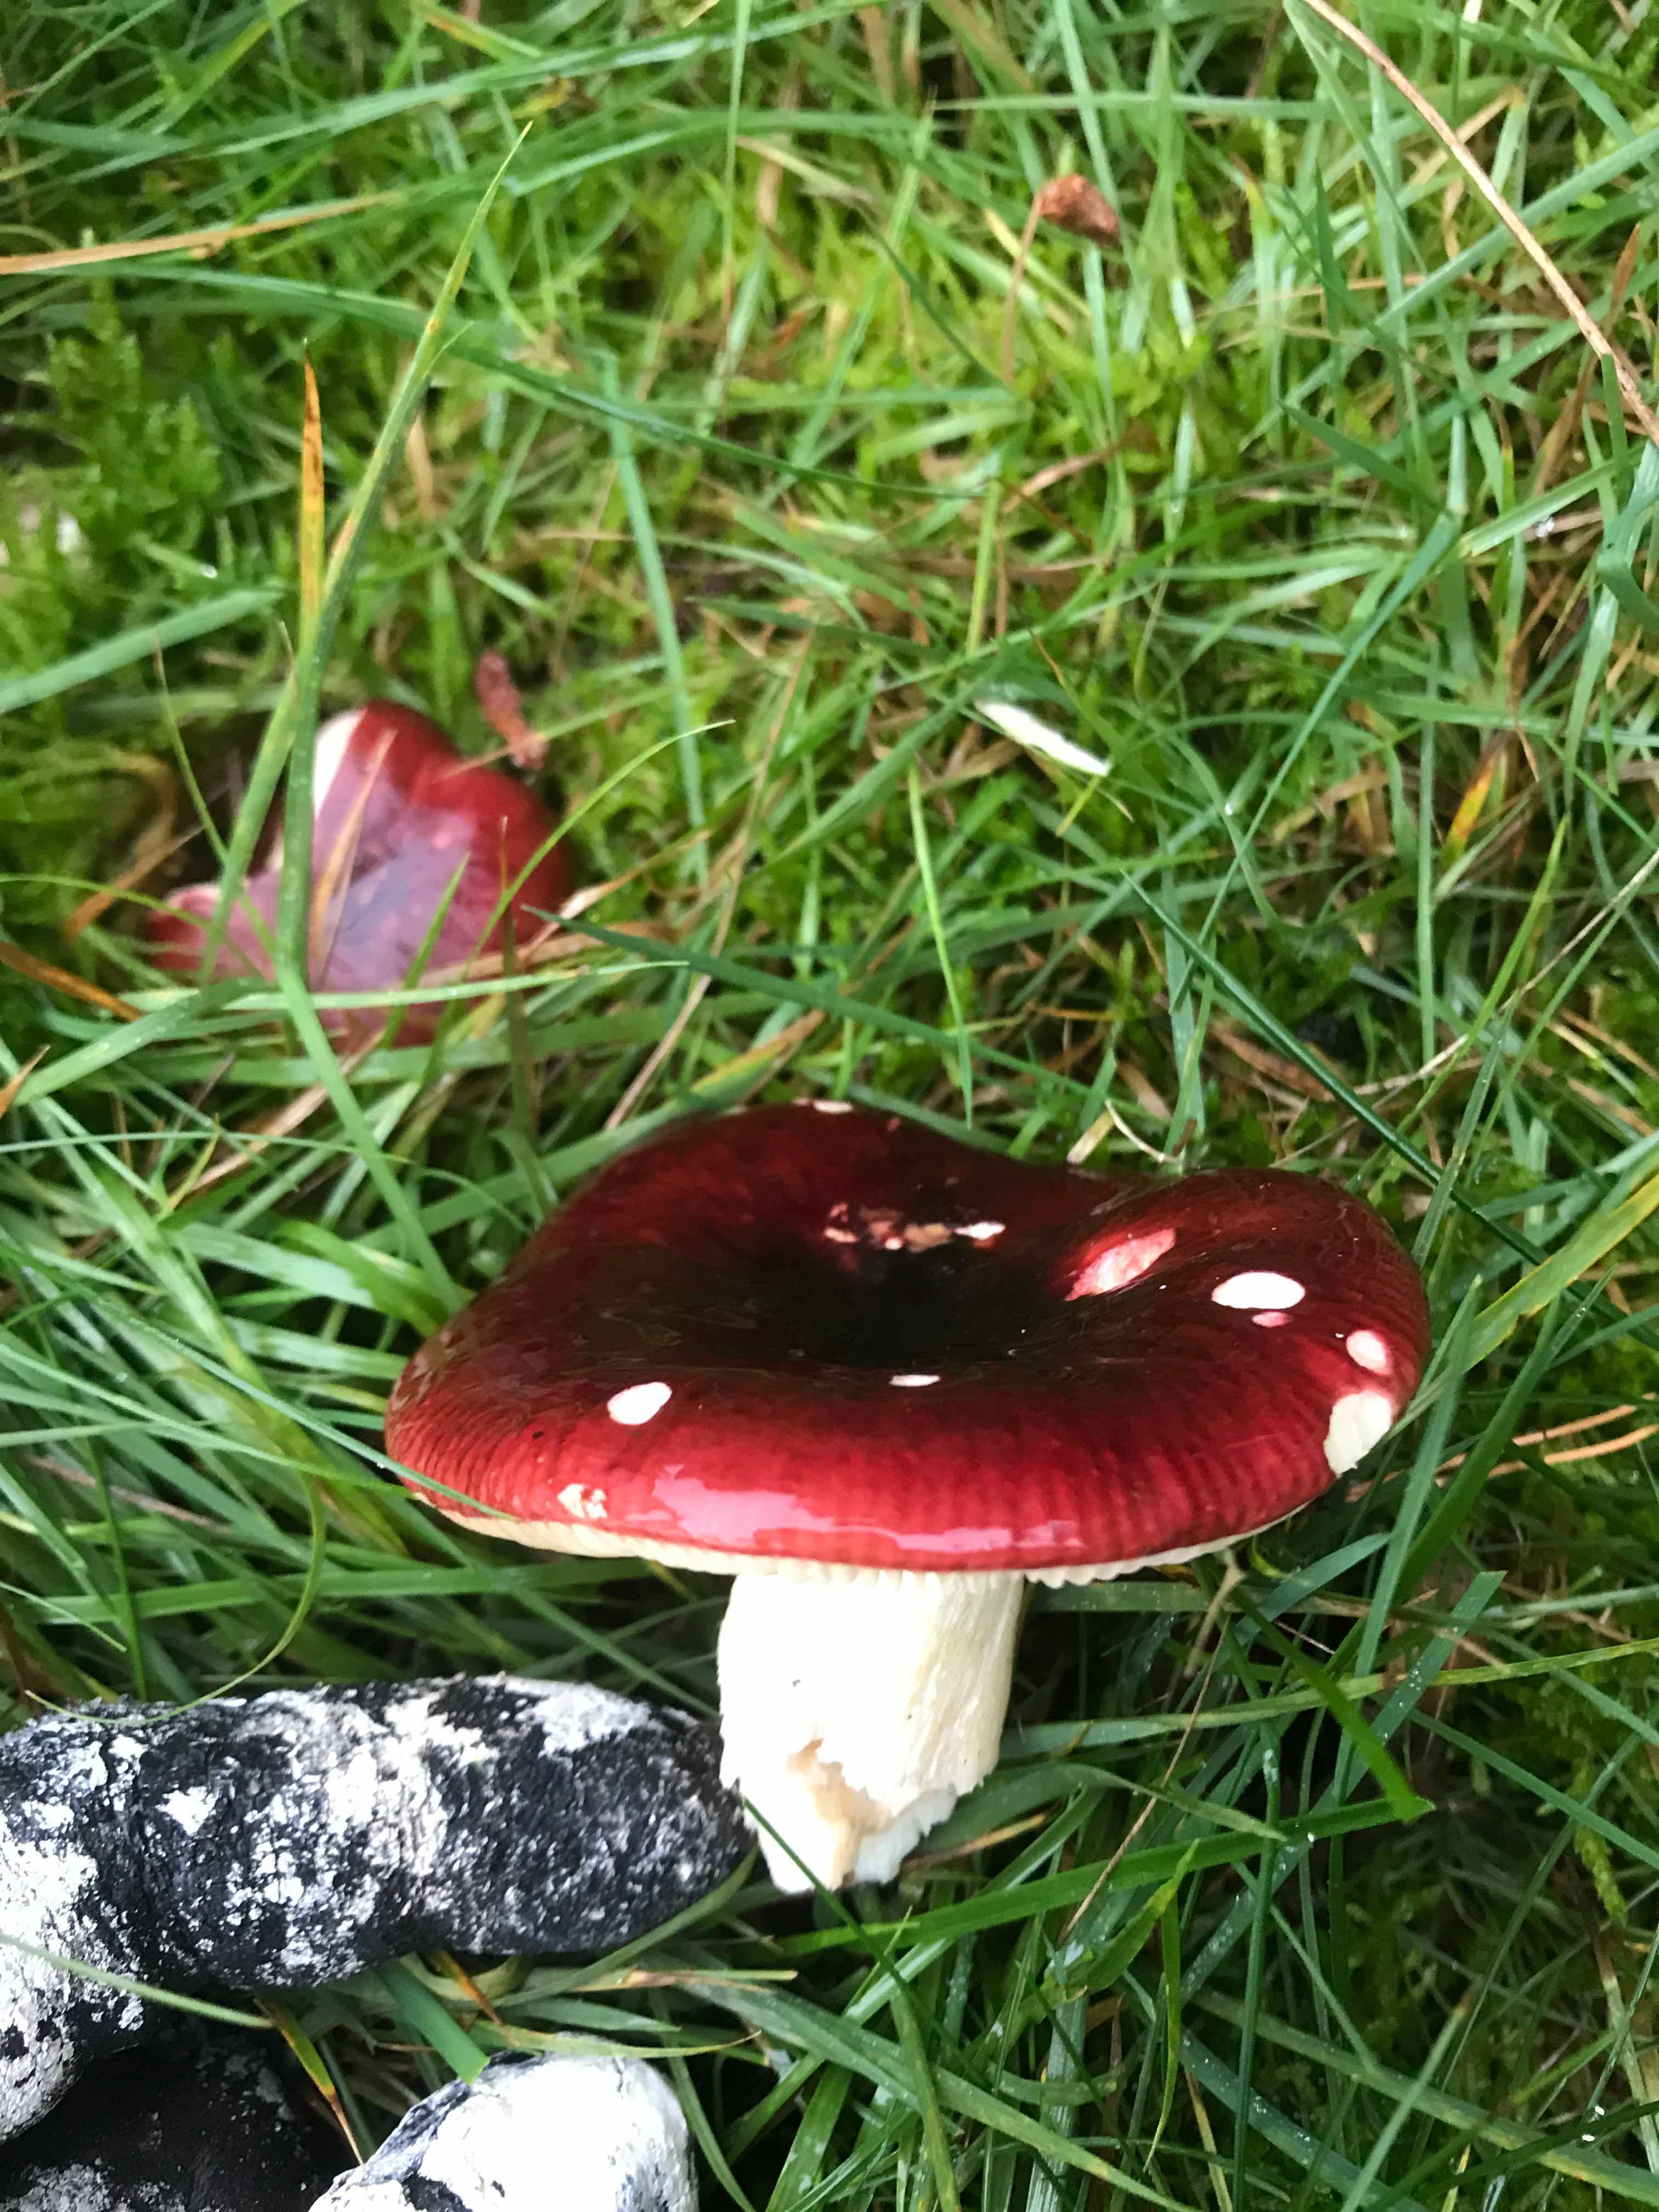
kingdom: Fungi
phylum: Basidiomycota
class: Agaricomycetes
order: Russulales
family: Russulaceae
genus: Russula
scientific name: Russula
